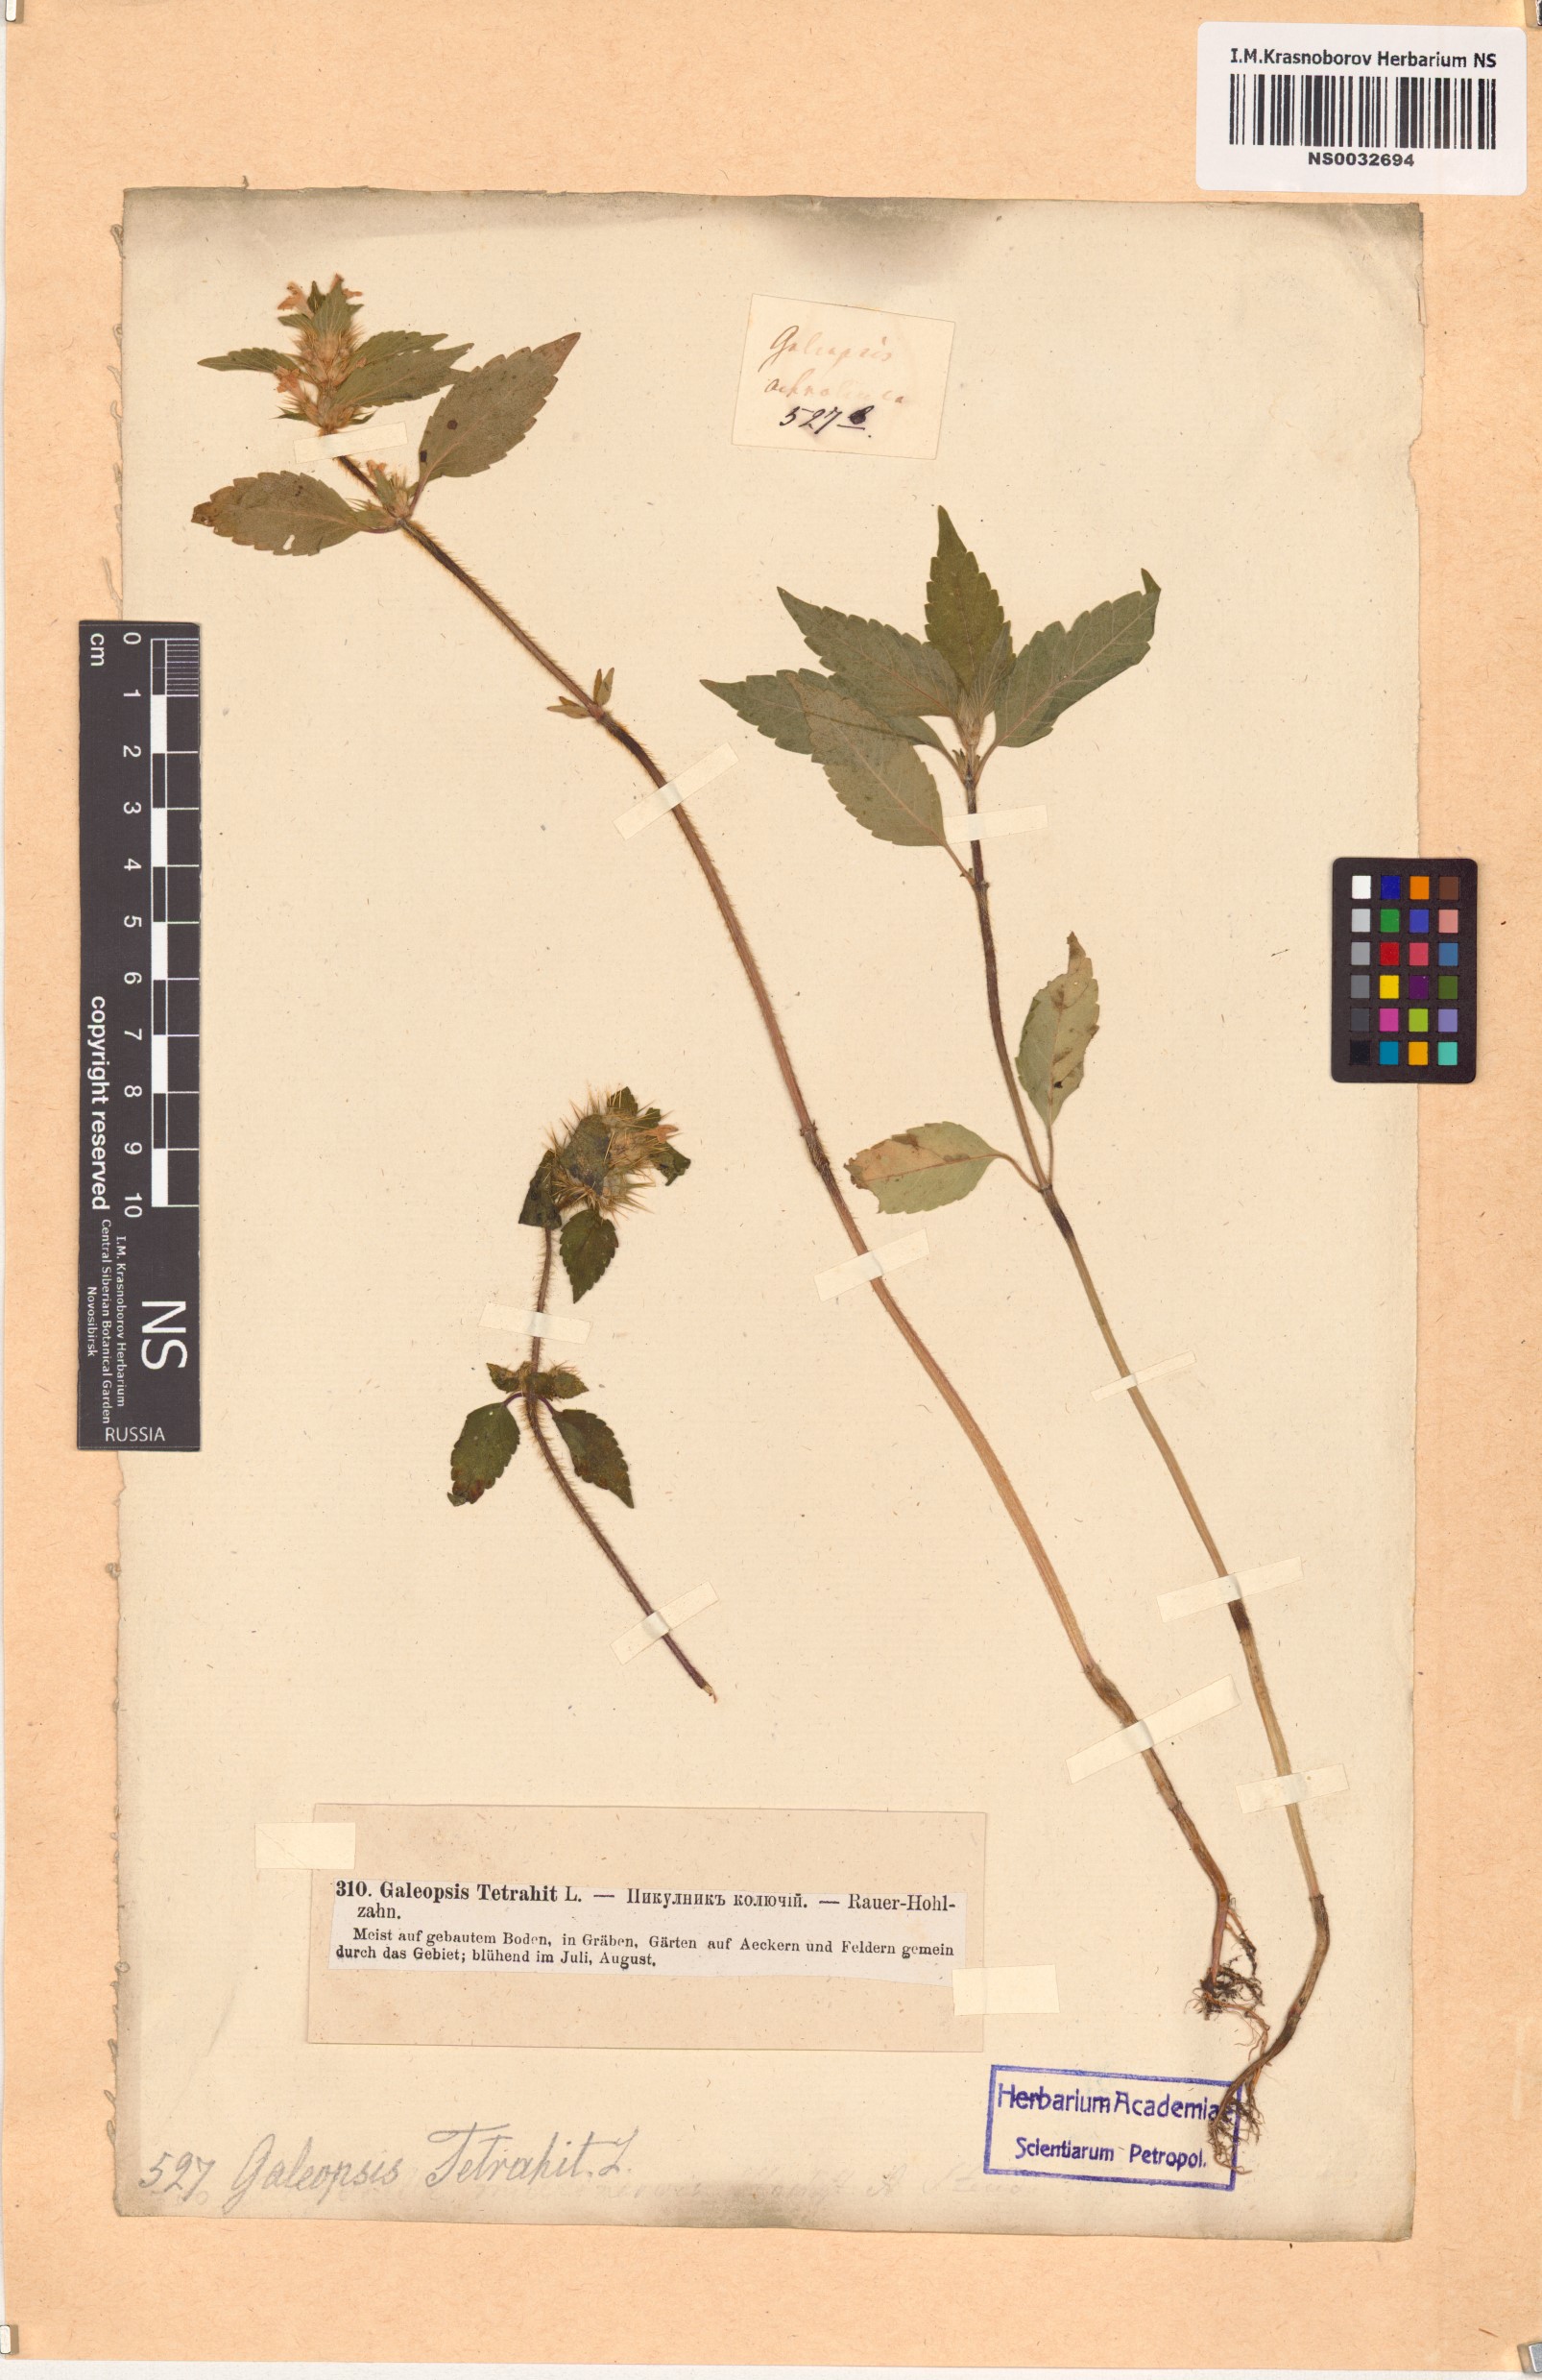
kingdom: Plantae
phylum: Tracheophyta
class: Magnoliopsida
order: Lamiales
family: Lamiaceae
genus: Galeopsis
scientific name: Galeopsis tetrahit
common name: Common hemp-nettle
